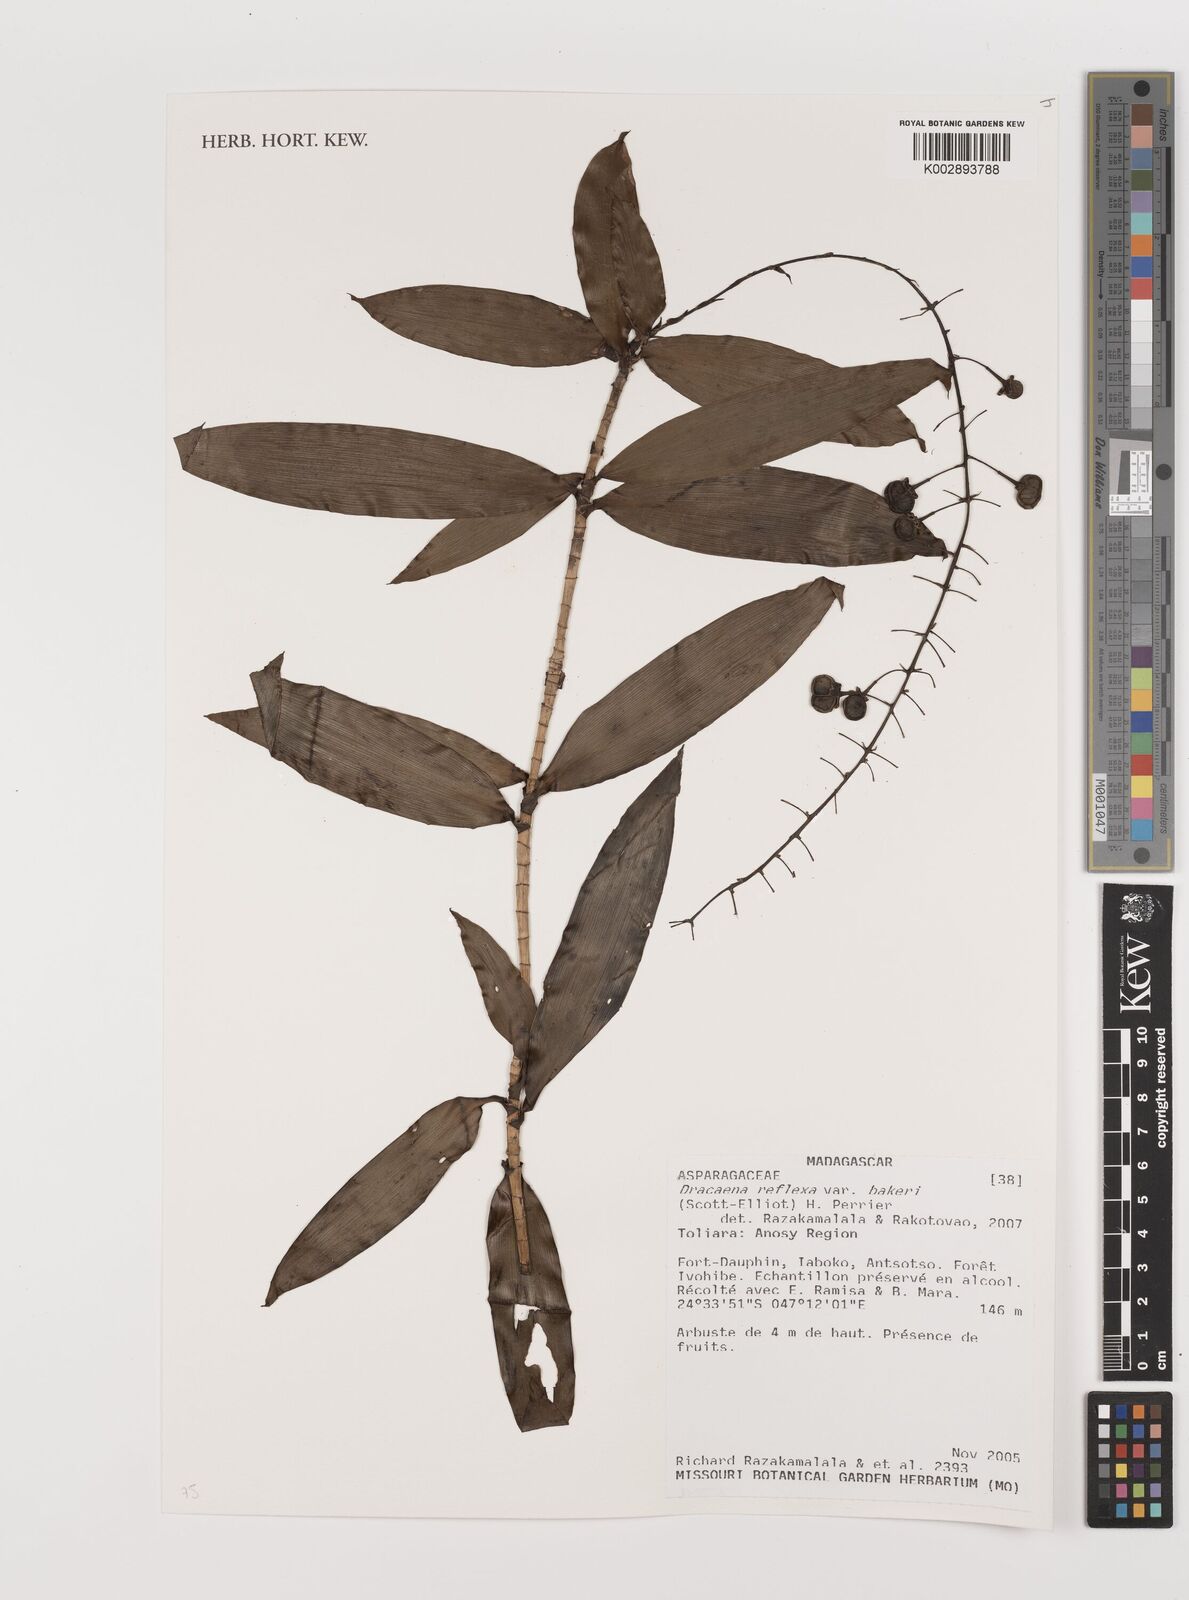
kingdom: Plantae
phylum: Tracheophyta
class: Liliopsida
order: Asparagales
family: Asparagaceae
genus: Dracaena
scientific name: Dracaena reflexa
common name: Song-of-india
